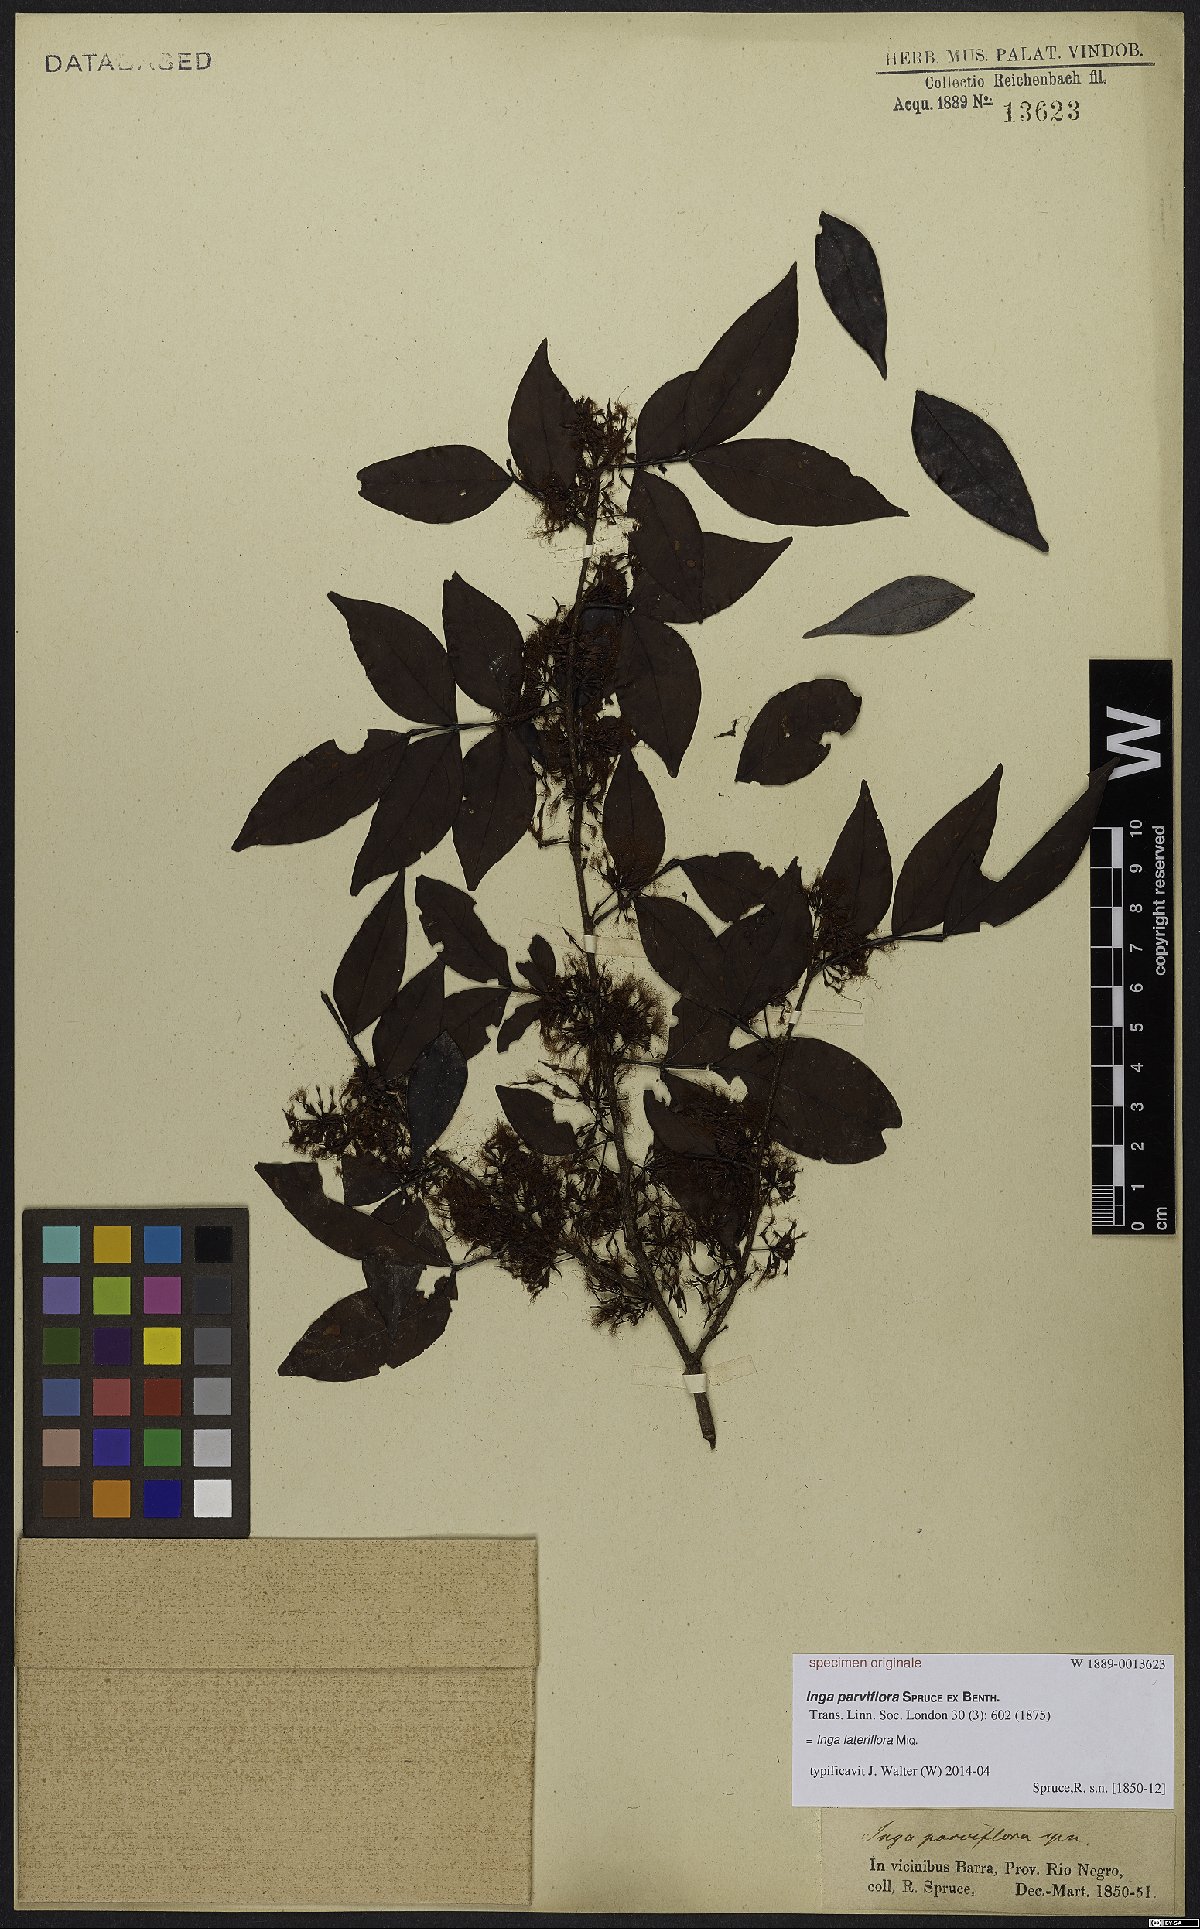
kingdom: Plantae
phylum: Tracheophyta
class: Magnoliopsida
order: Fabales
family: Fabaceae
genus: Inga
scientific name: Inga lateriflora
